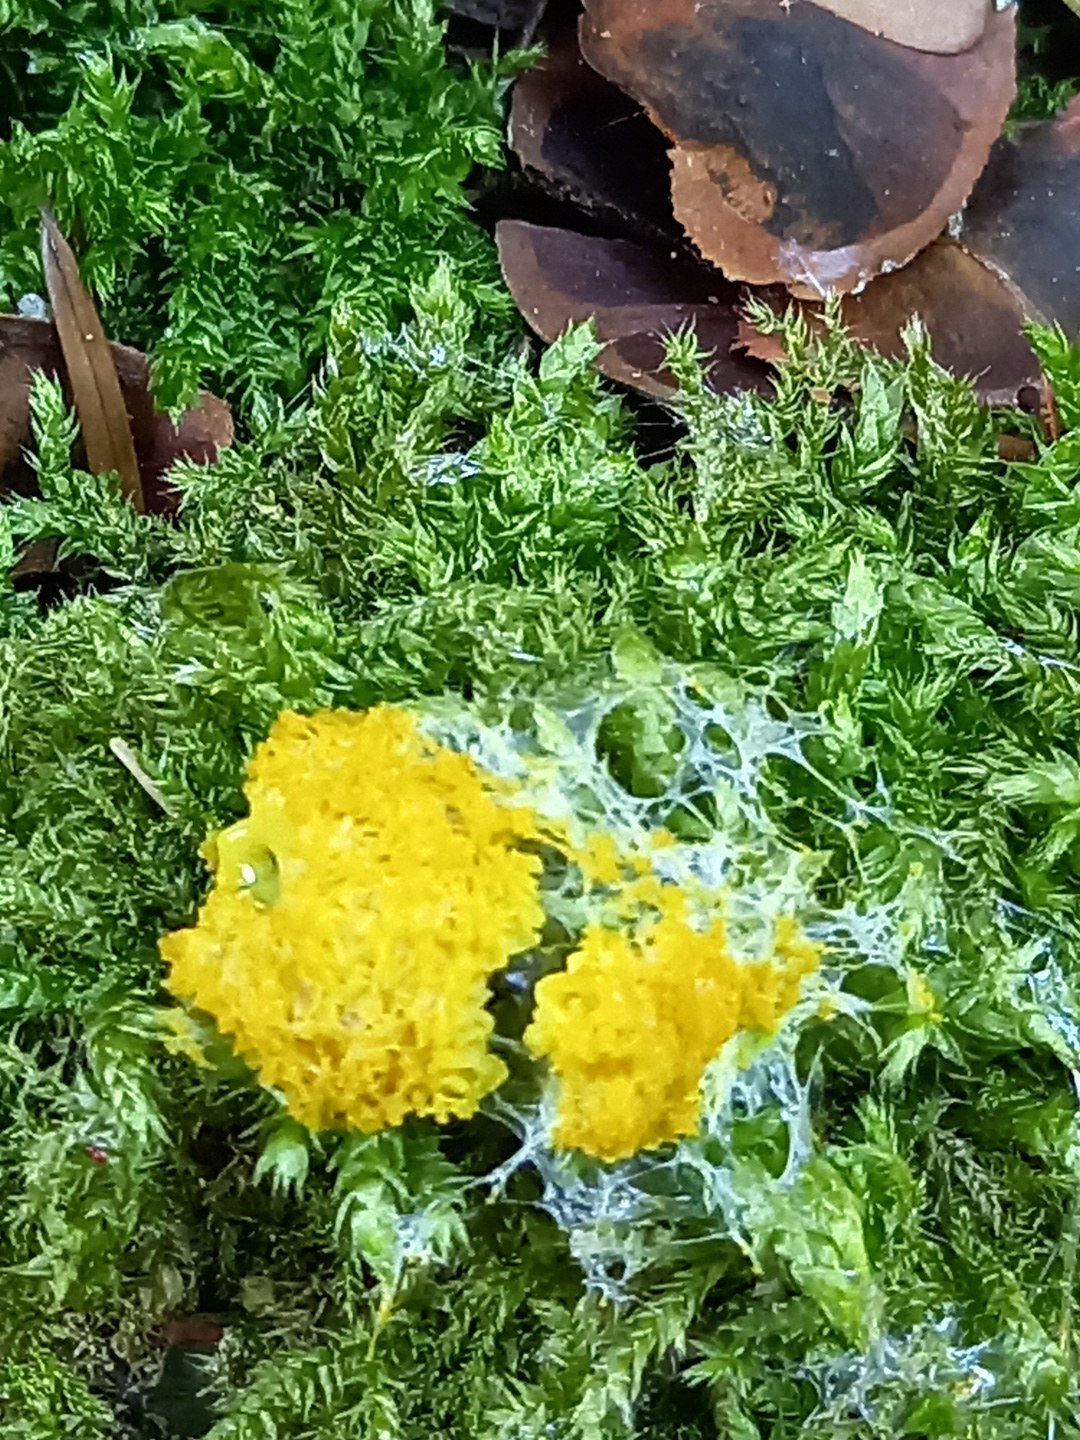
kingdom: Protozoa
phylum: Mycetozoa
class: Myxomycetes
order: Physarales
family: Physaraceae
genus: Fuligo
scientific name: Fuligo septica
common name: gul troldsmør
